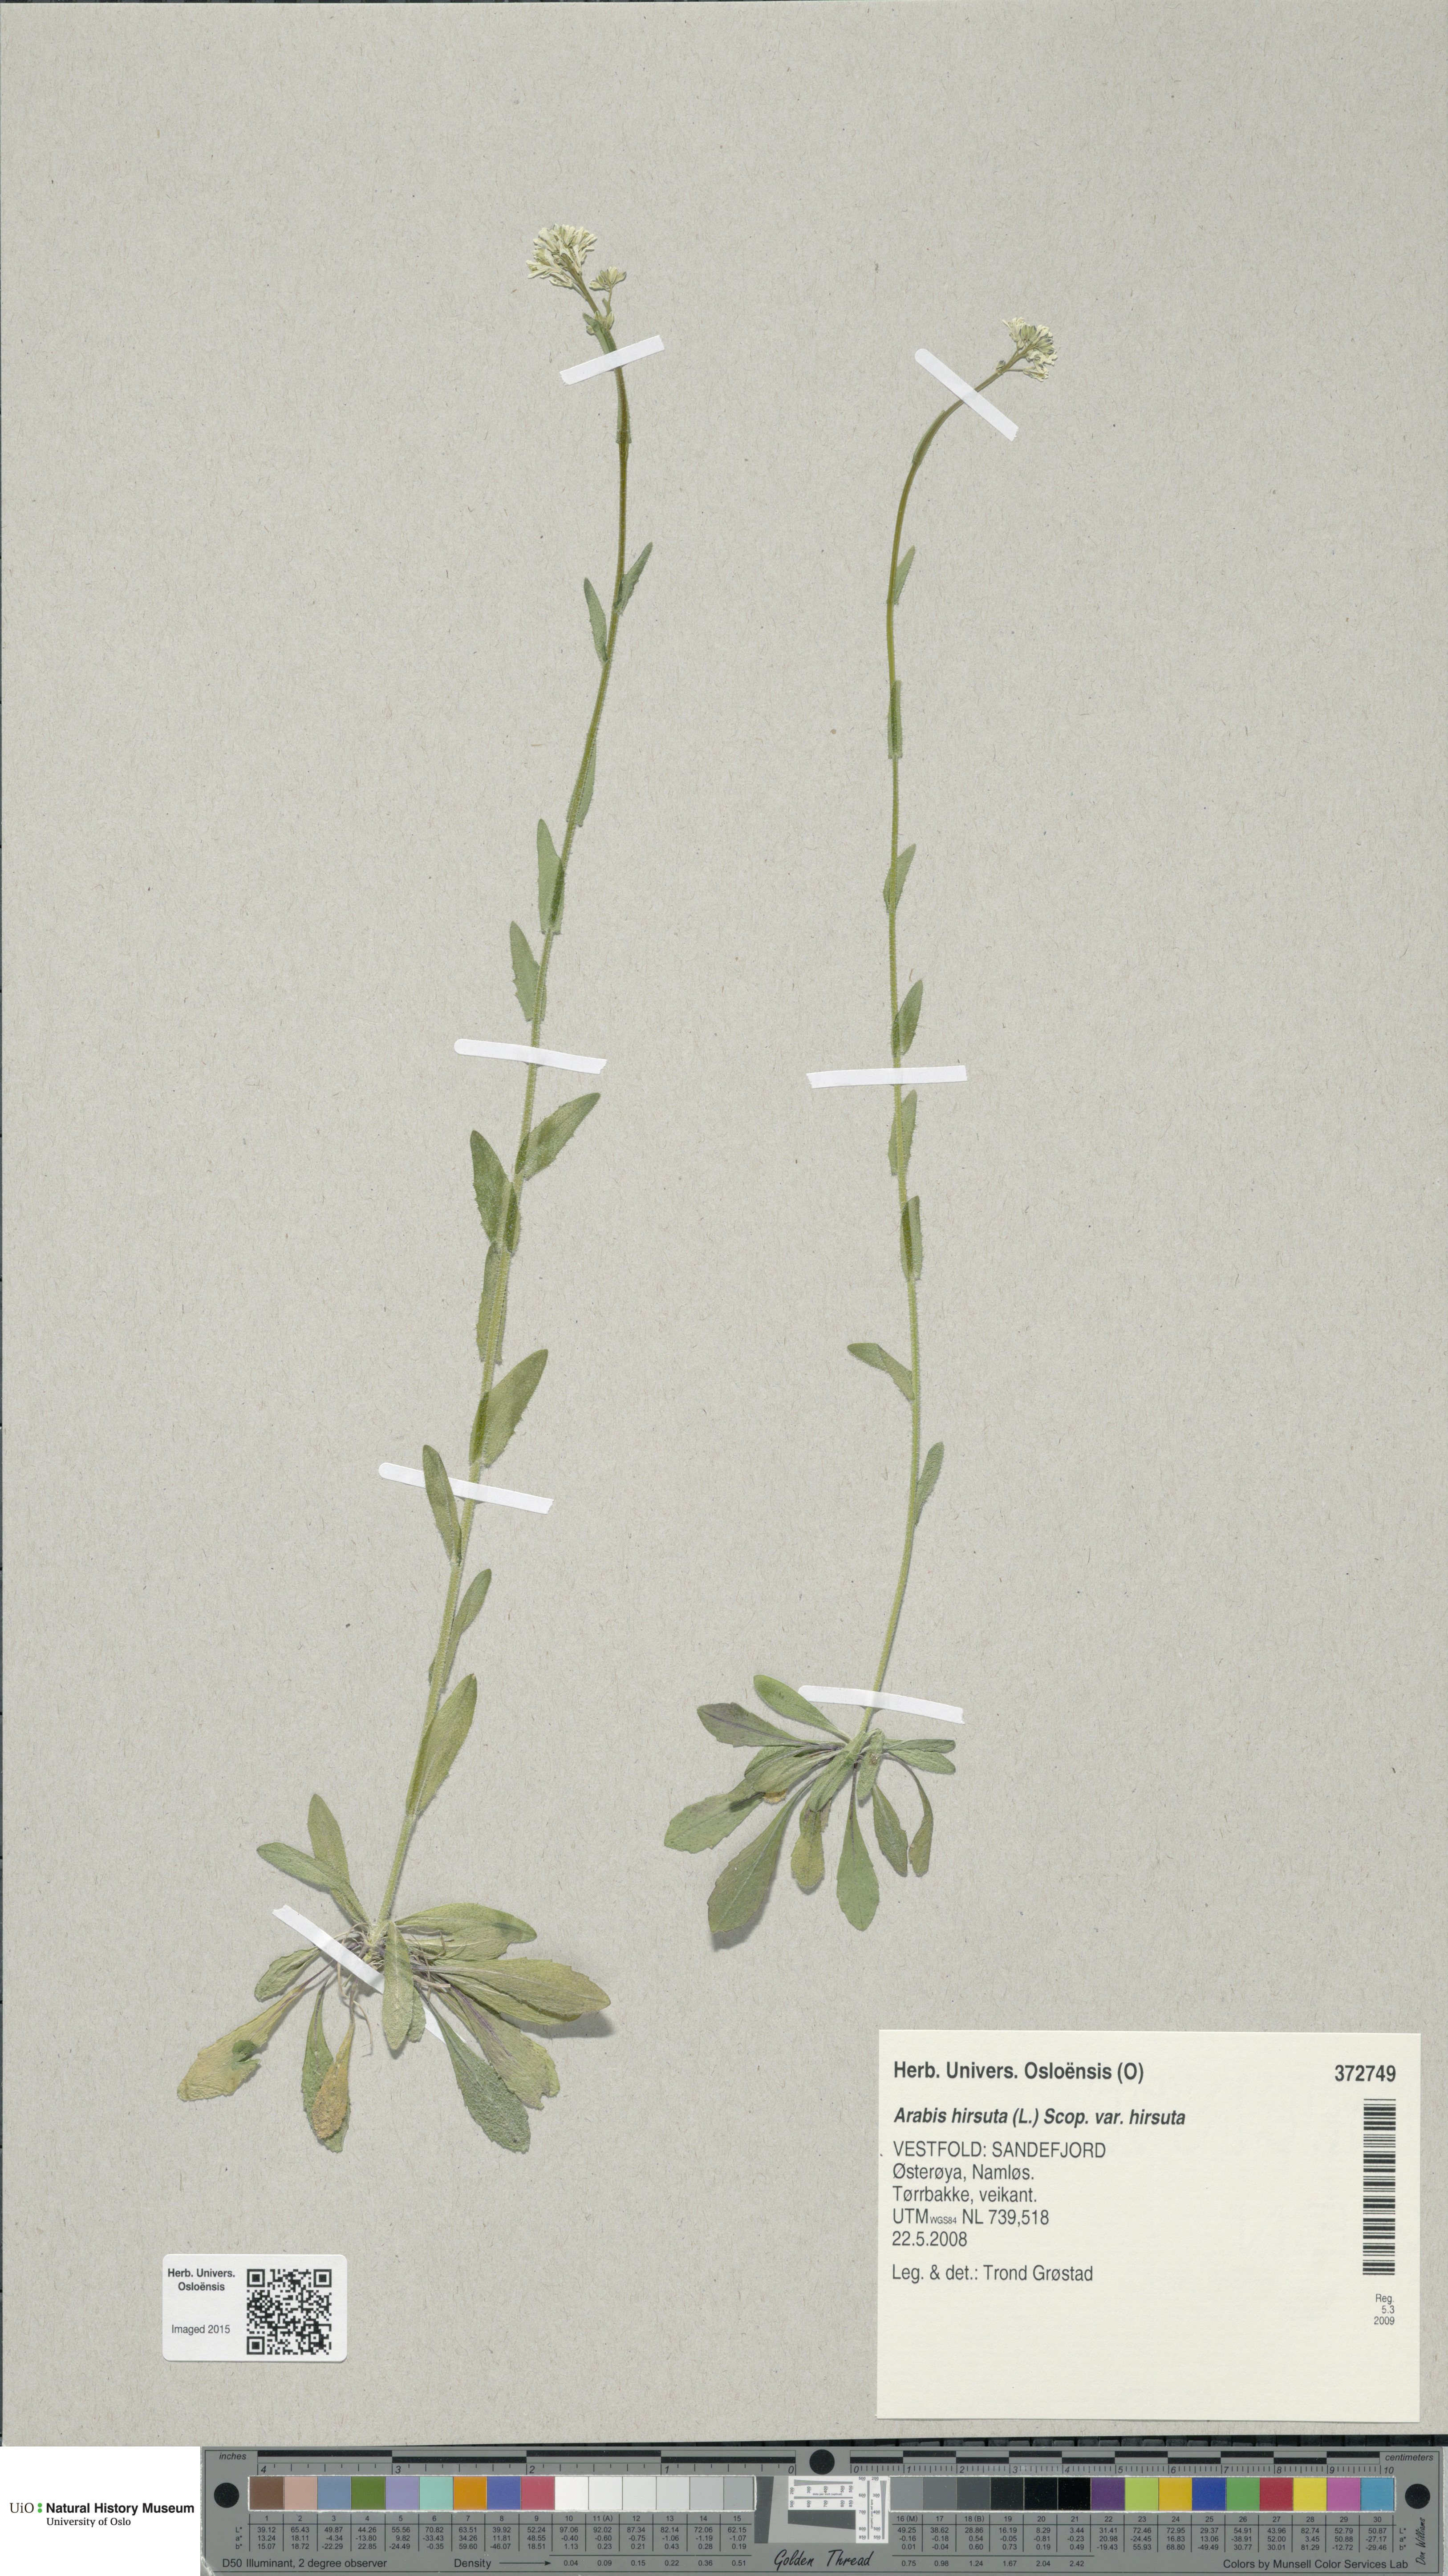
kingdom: Plantae
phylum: Tracheophyta
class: Magnoliopsida
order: Brassicales
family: Brassicaceae
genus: Arabis
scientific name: Arabis hirsuta
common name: Hairy rock-cress
